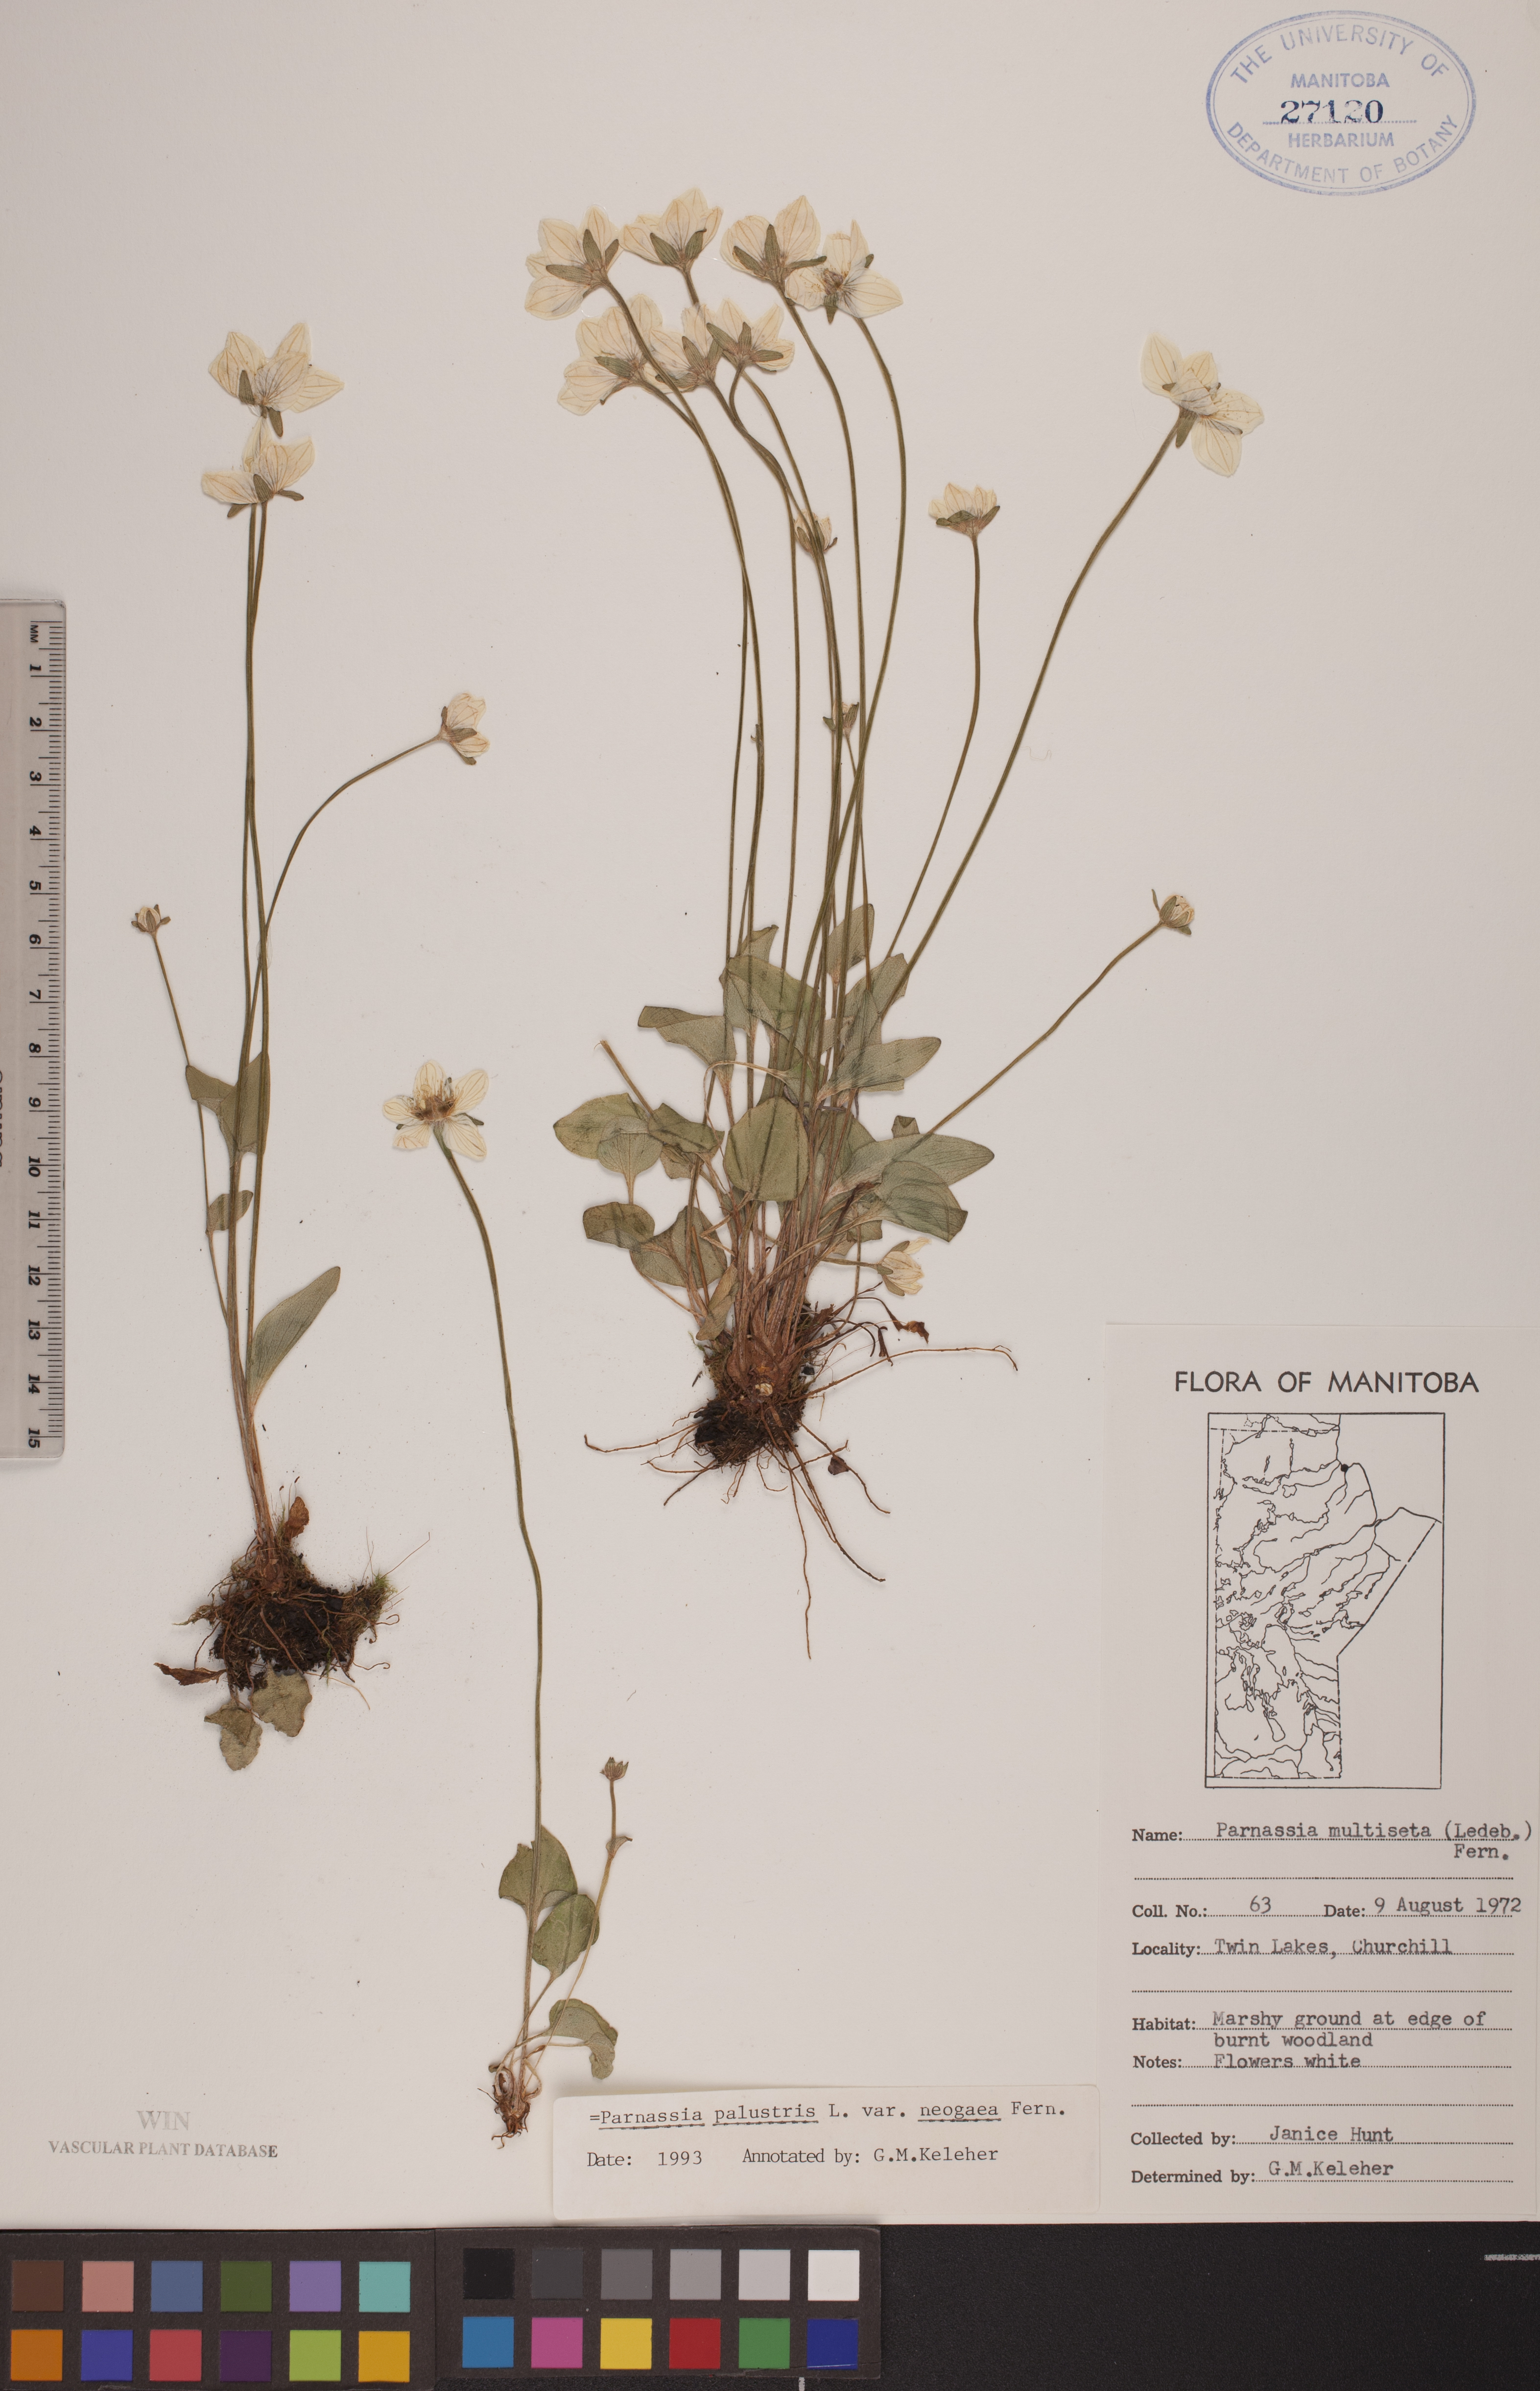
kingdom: Plantae
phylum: Tracheophyta
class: Magnoliopsida
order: Celastrales
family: Parnassiaceae
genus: Parnassia
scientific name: Parnassia palustris
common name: Grass-of-parnassus
